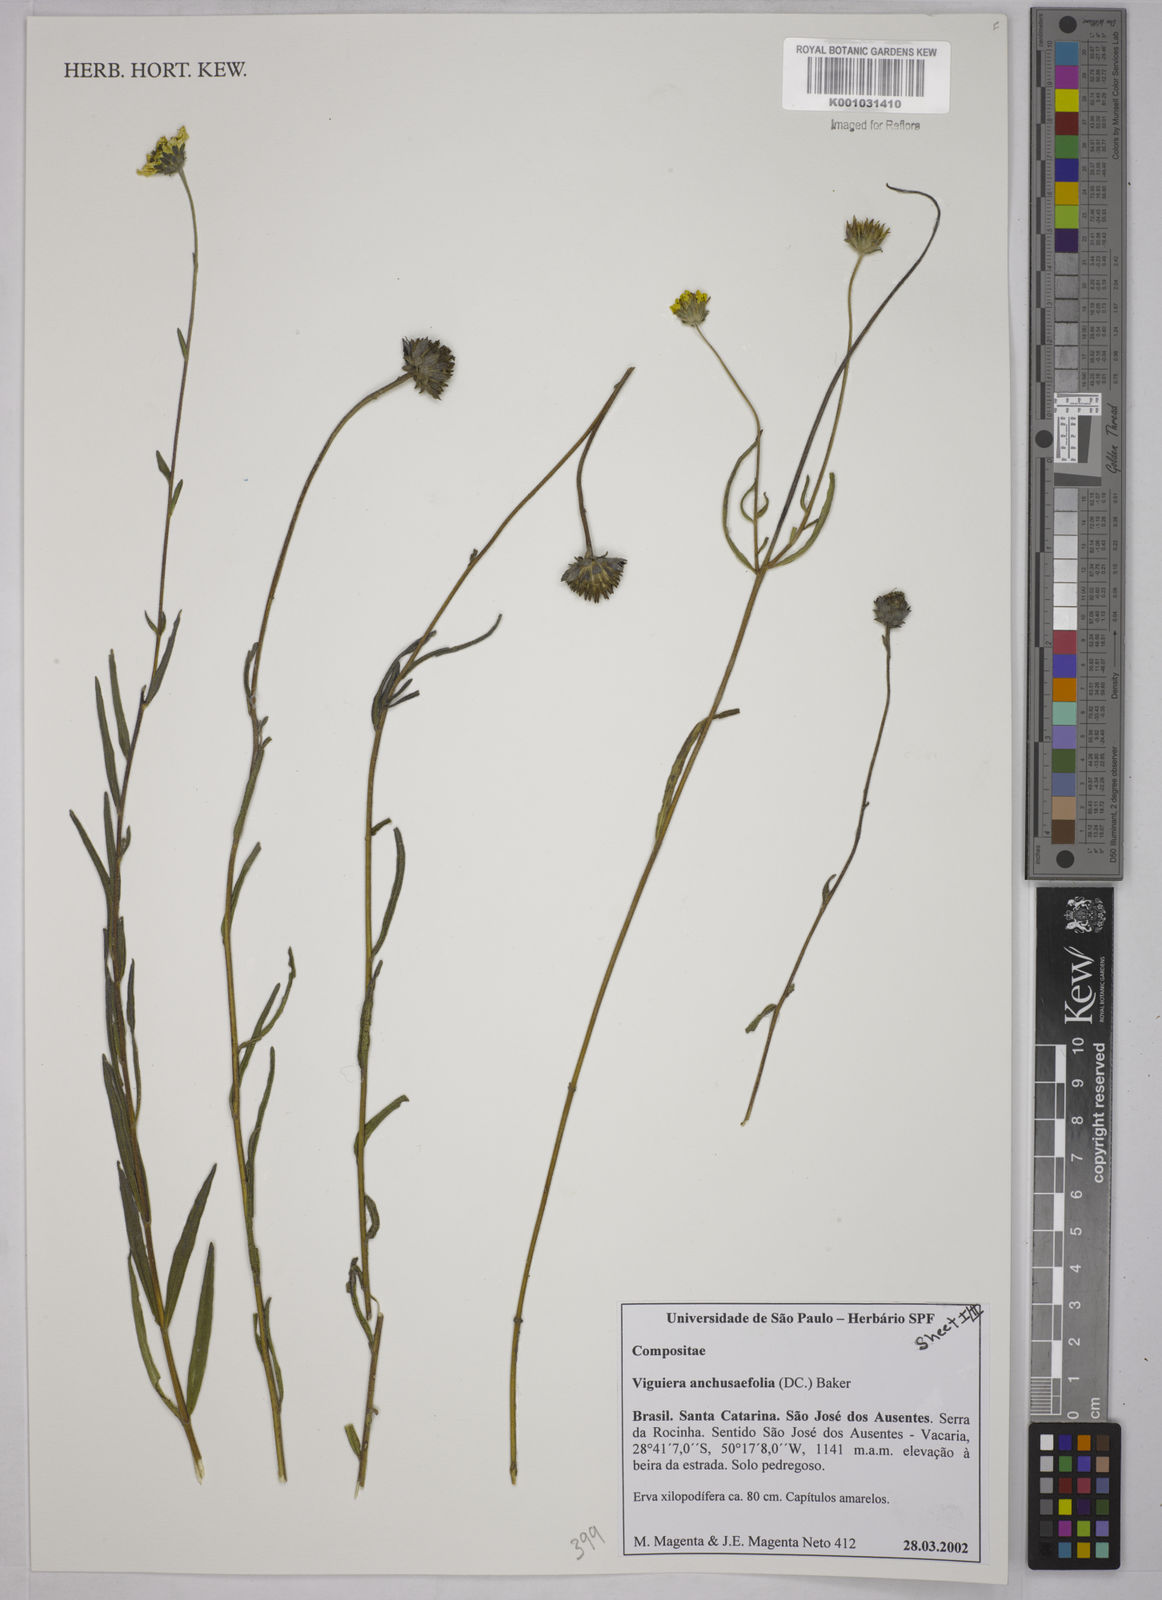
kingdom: Plantae
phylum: Tracheophyta
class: Magnoliopsida
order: Asterales
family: Asteraceae
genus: Viguiera
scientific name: Viguiera
